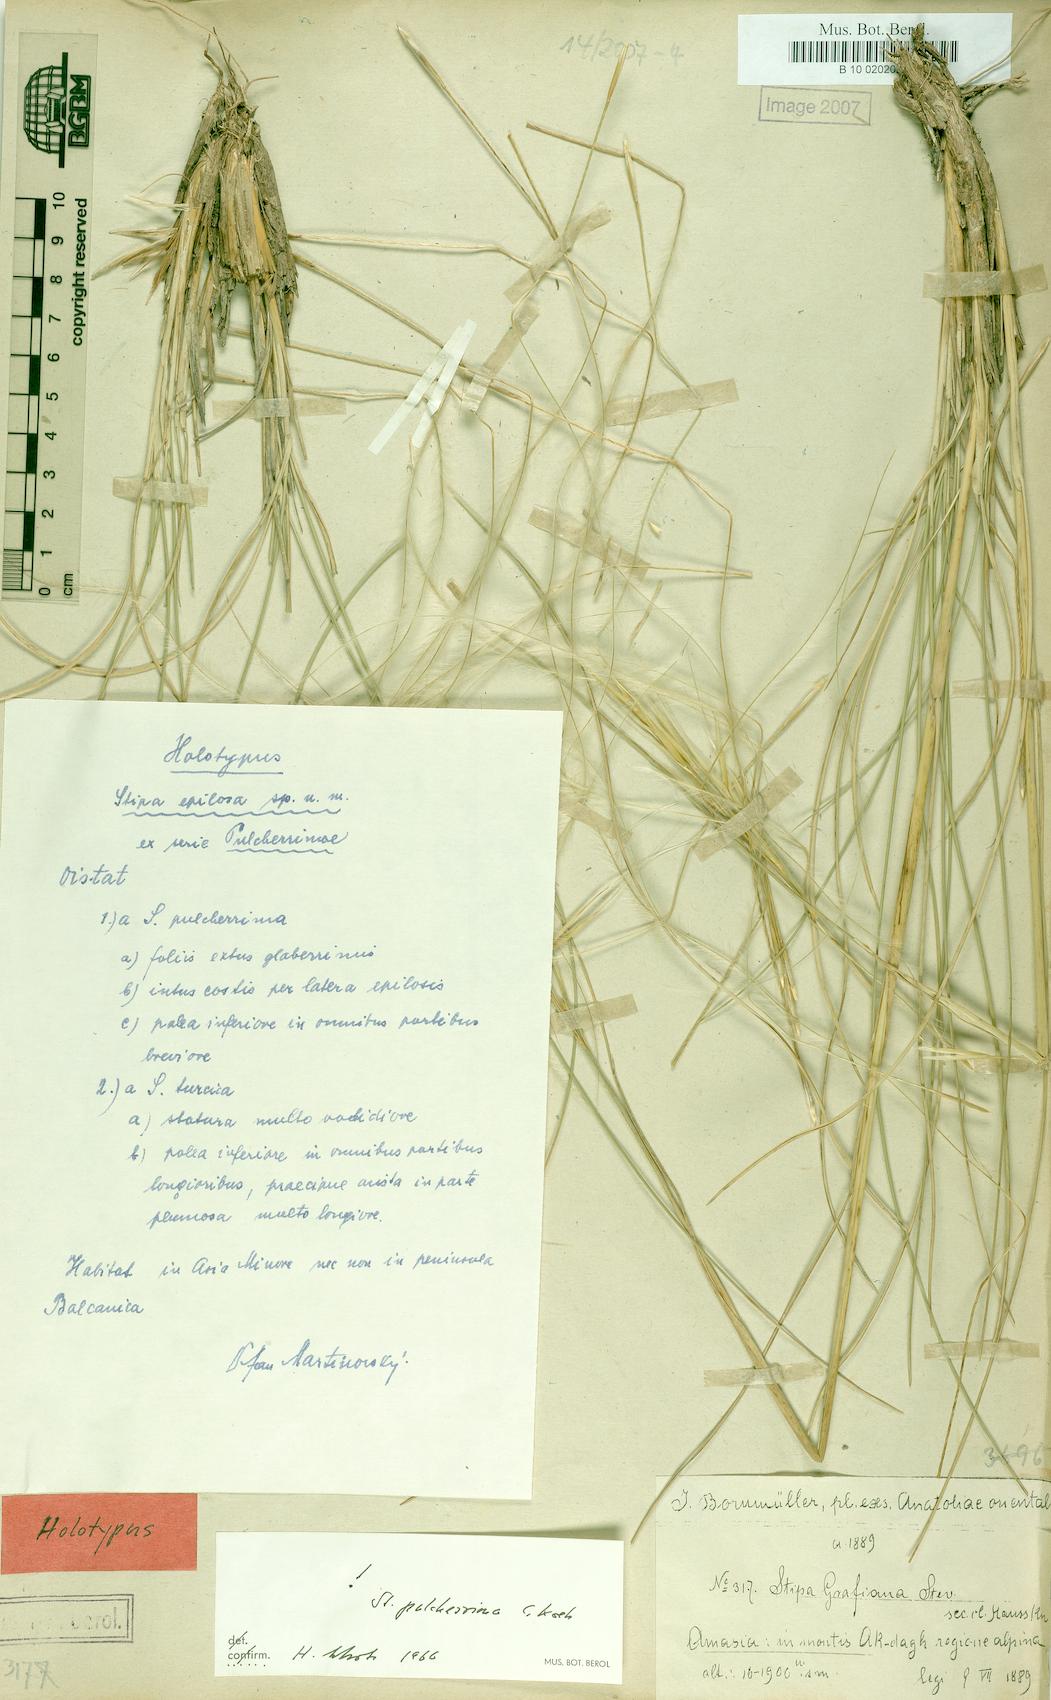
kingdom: Plantae
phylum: Tracheophyta
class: Liliopsida
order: Poales
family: Poaceae
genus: Stipa
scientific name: Stipa pulcherrima
